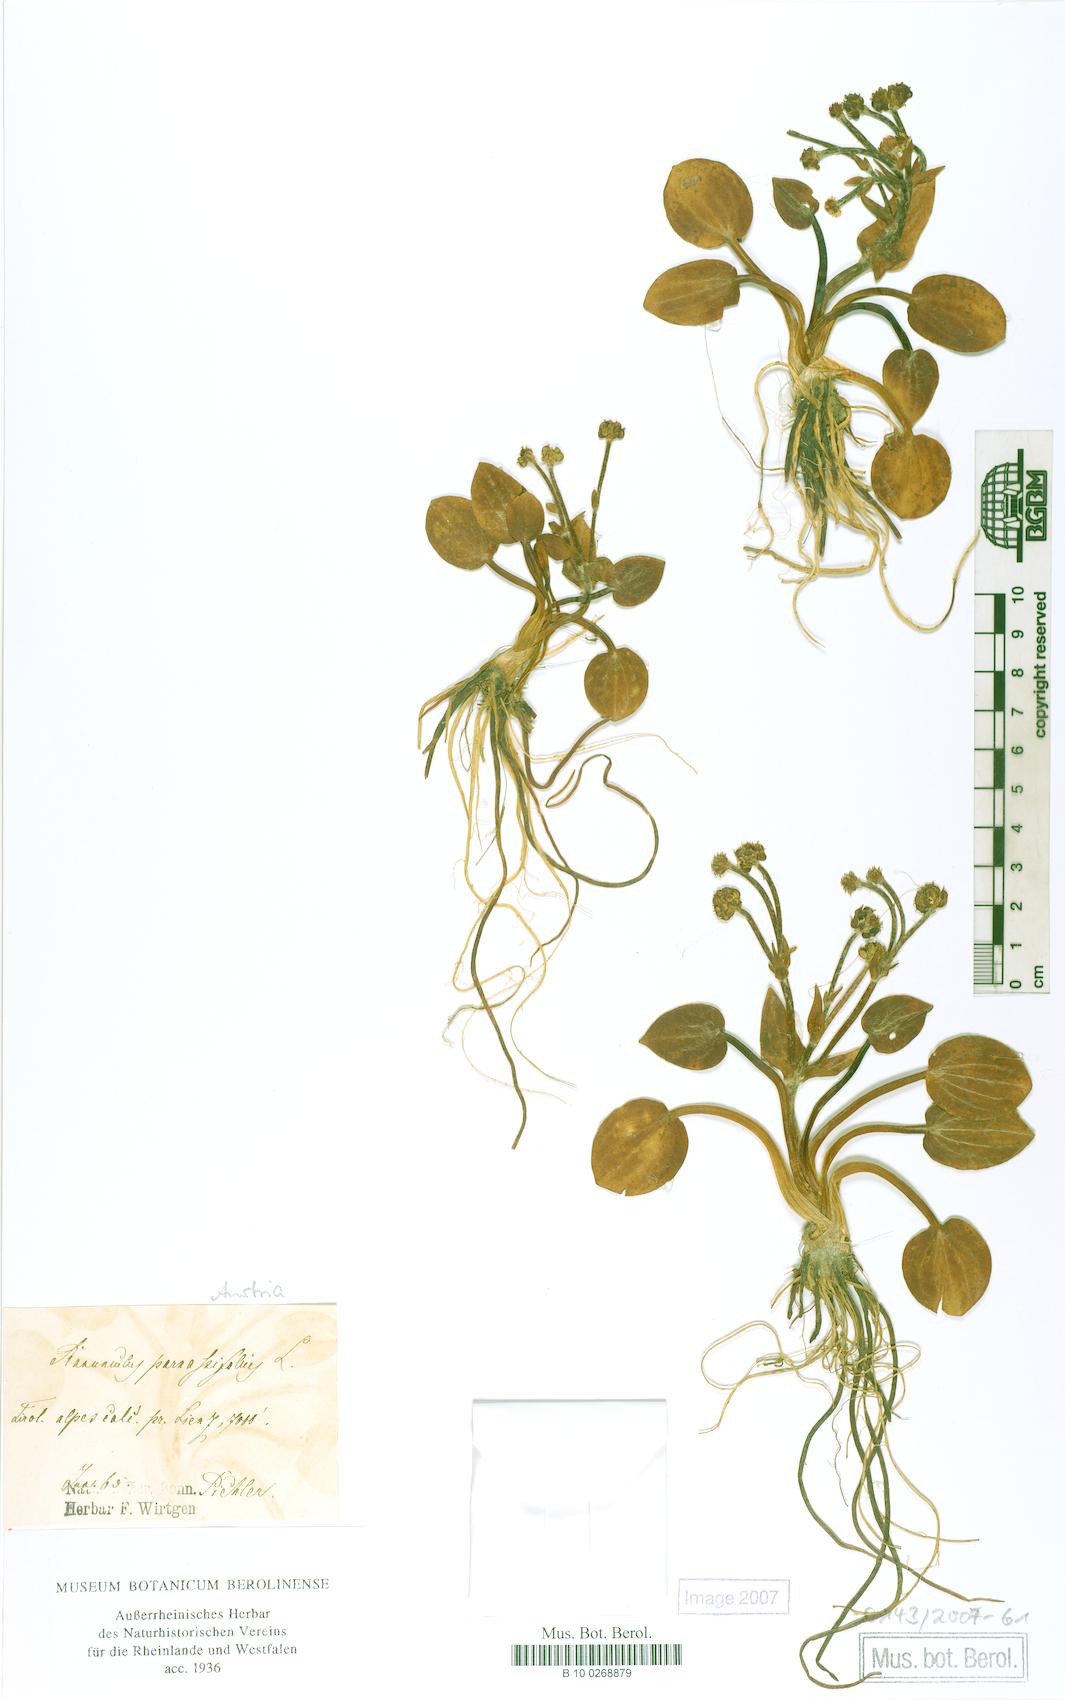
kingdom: Plantae
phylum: Tracheophyta
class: Magnoliopsida
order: Ranunculales
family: Ranunculaceae
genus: Ranunculus
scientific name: Ranunculus parnassiifolius
